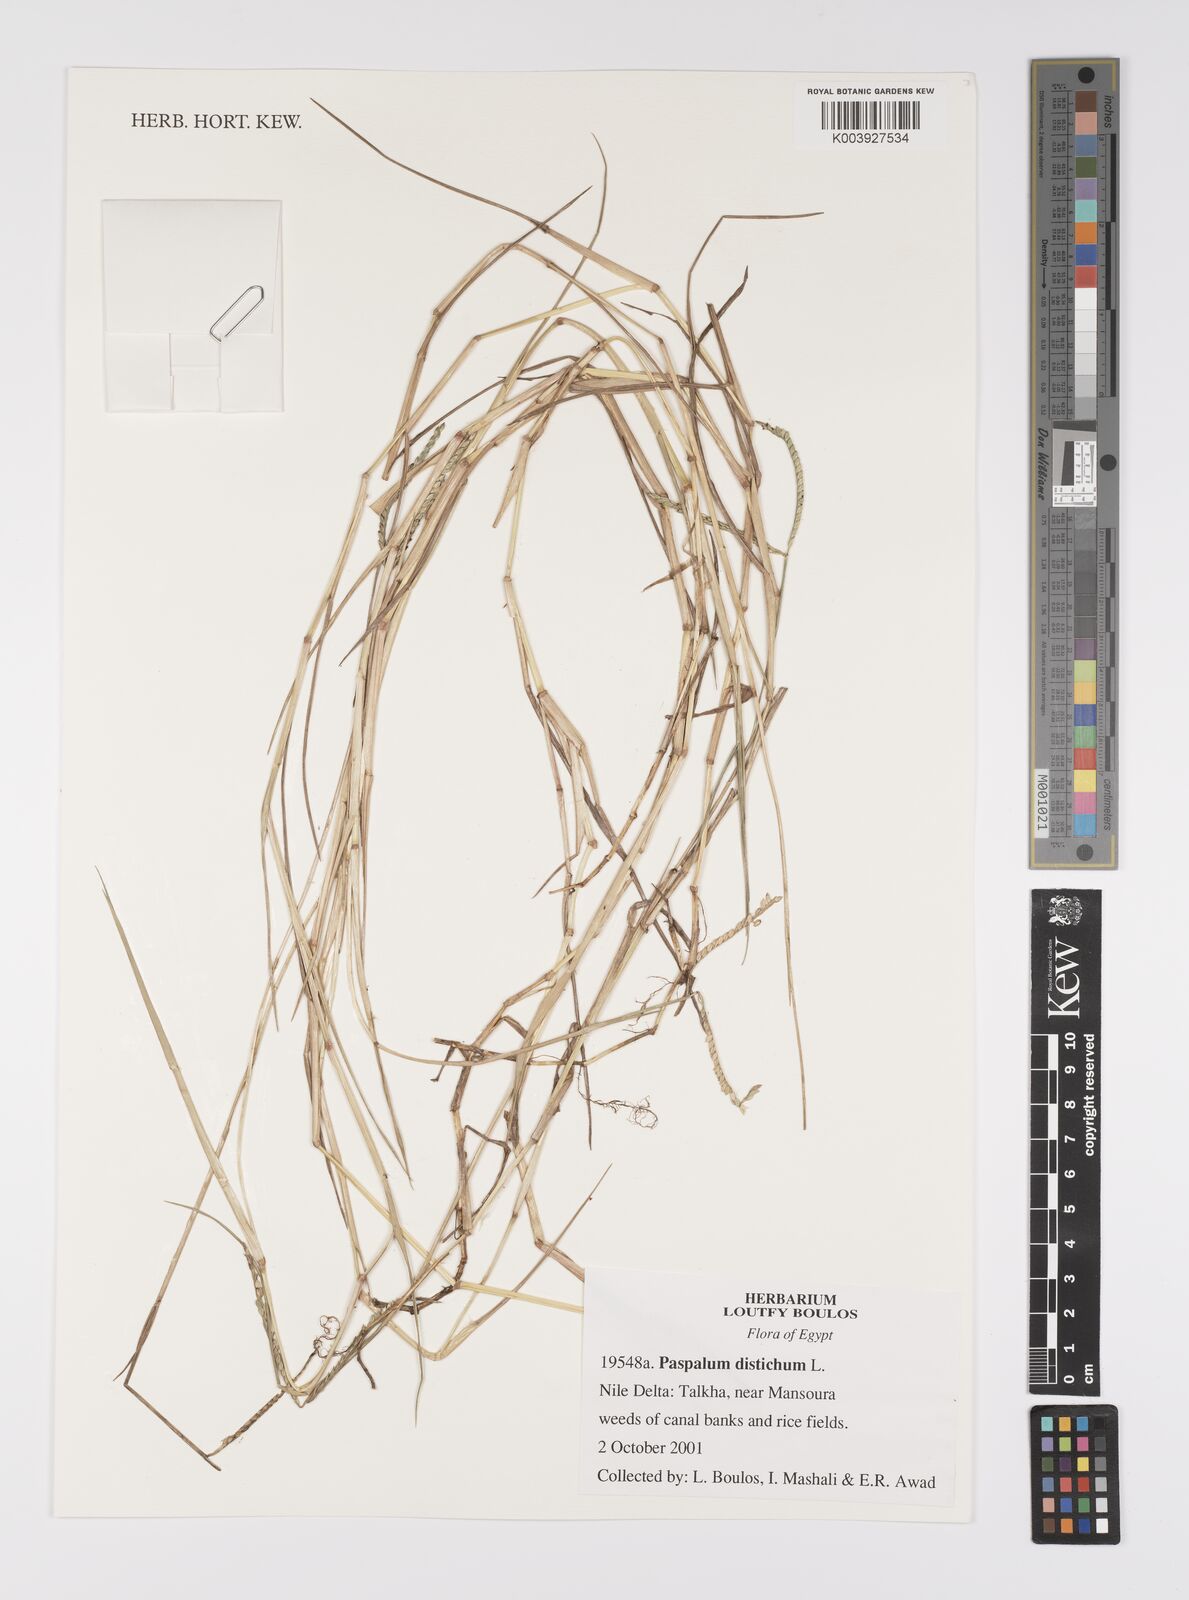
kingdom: Plantae
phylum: Tracheophyta
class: Liliopsida
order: Poales
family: Poaceae
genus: Paspalum
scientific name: Paspalum distichum
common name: Knotgrass
